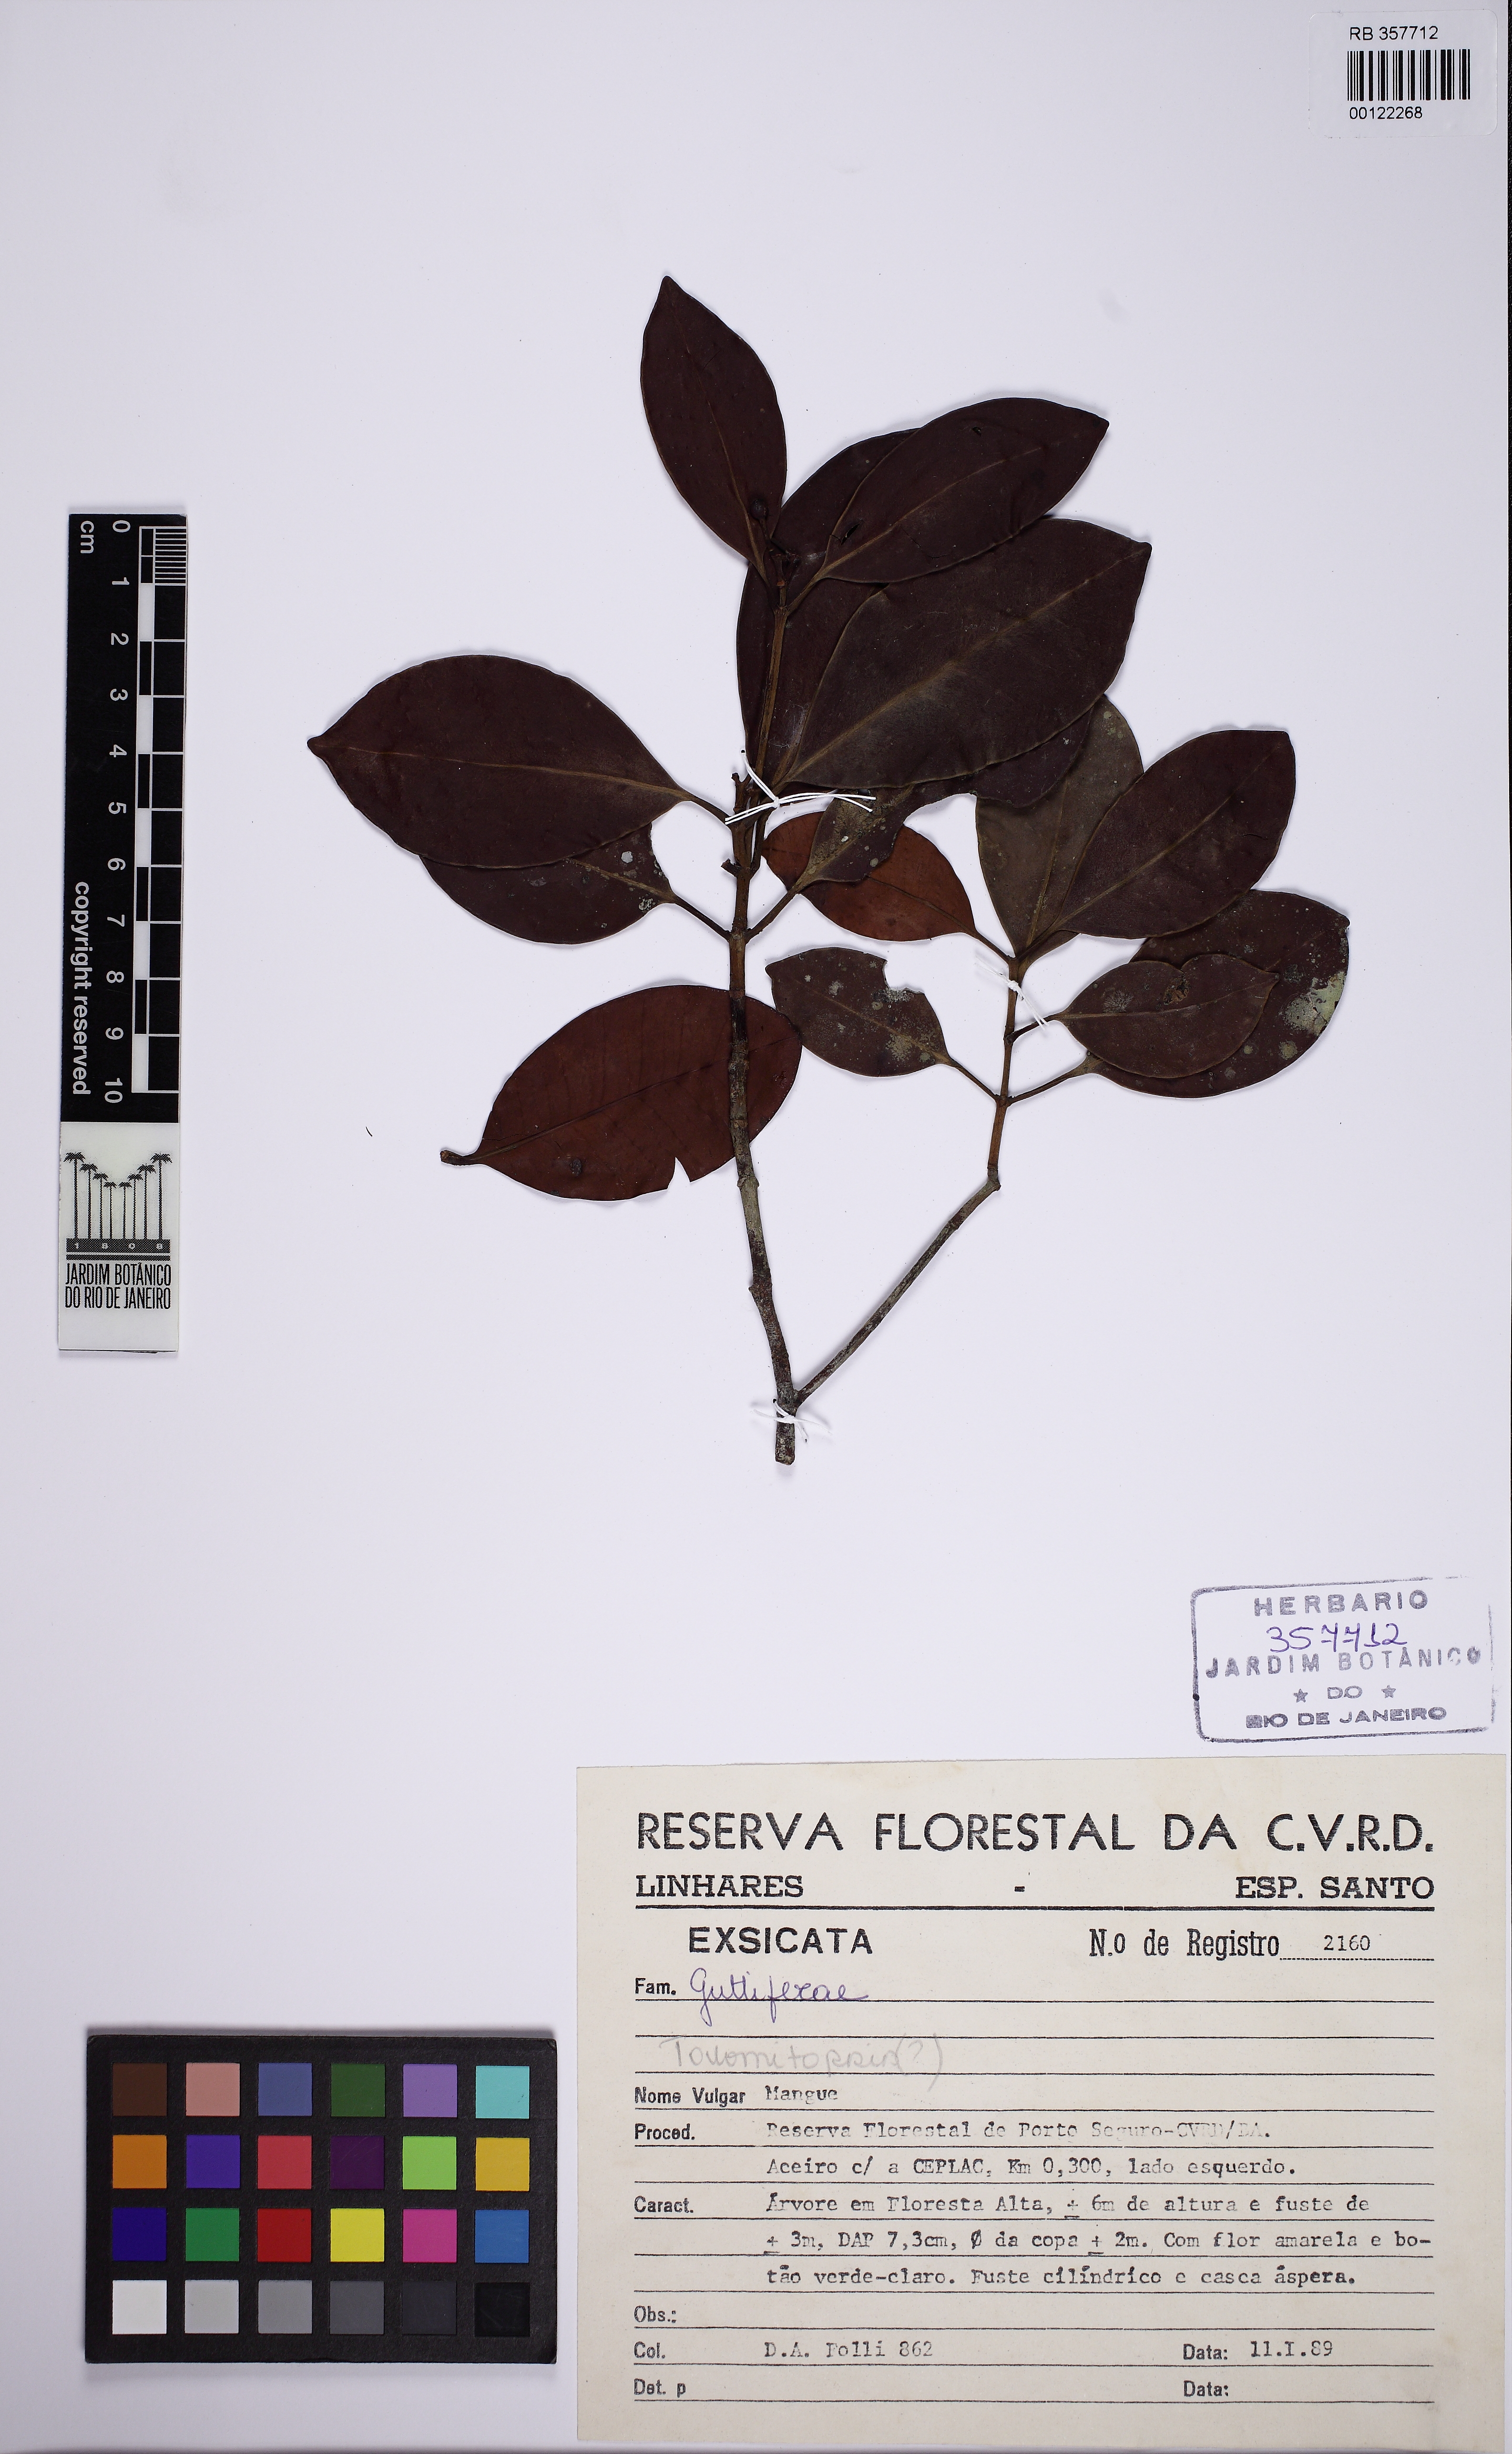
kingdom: Plantae
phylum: Tracheophyta
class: Magnoliopsida
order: Malpighiales
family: Clusiaceae
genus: Tovomita
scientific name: Tovomita brevistaminea
